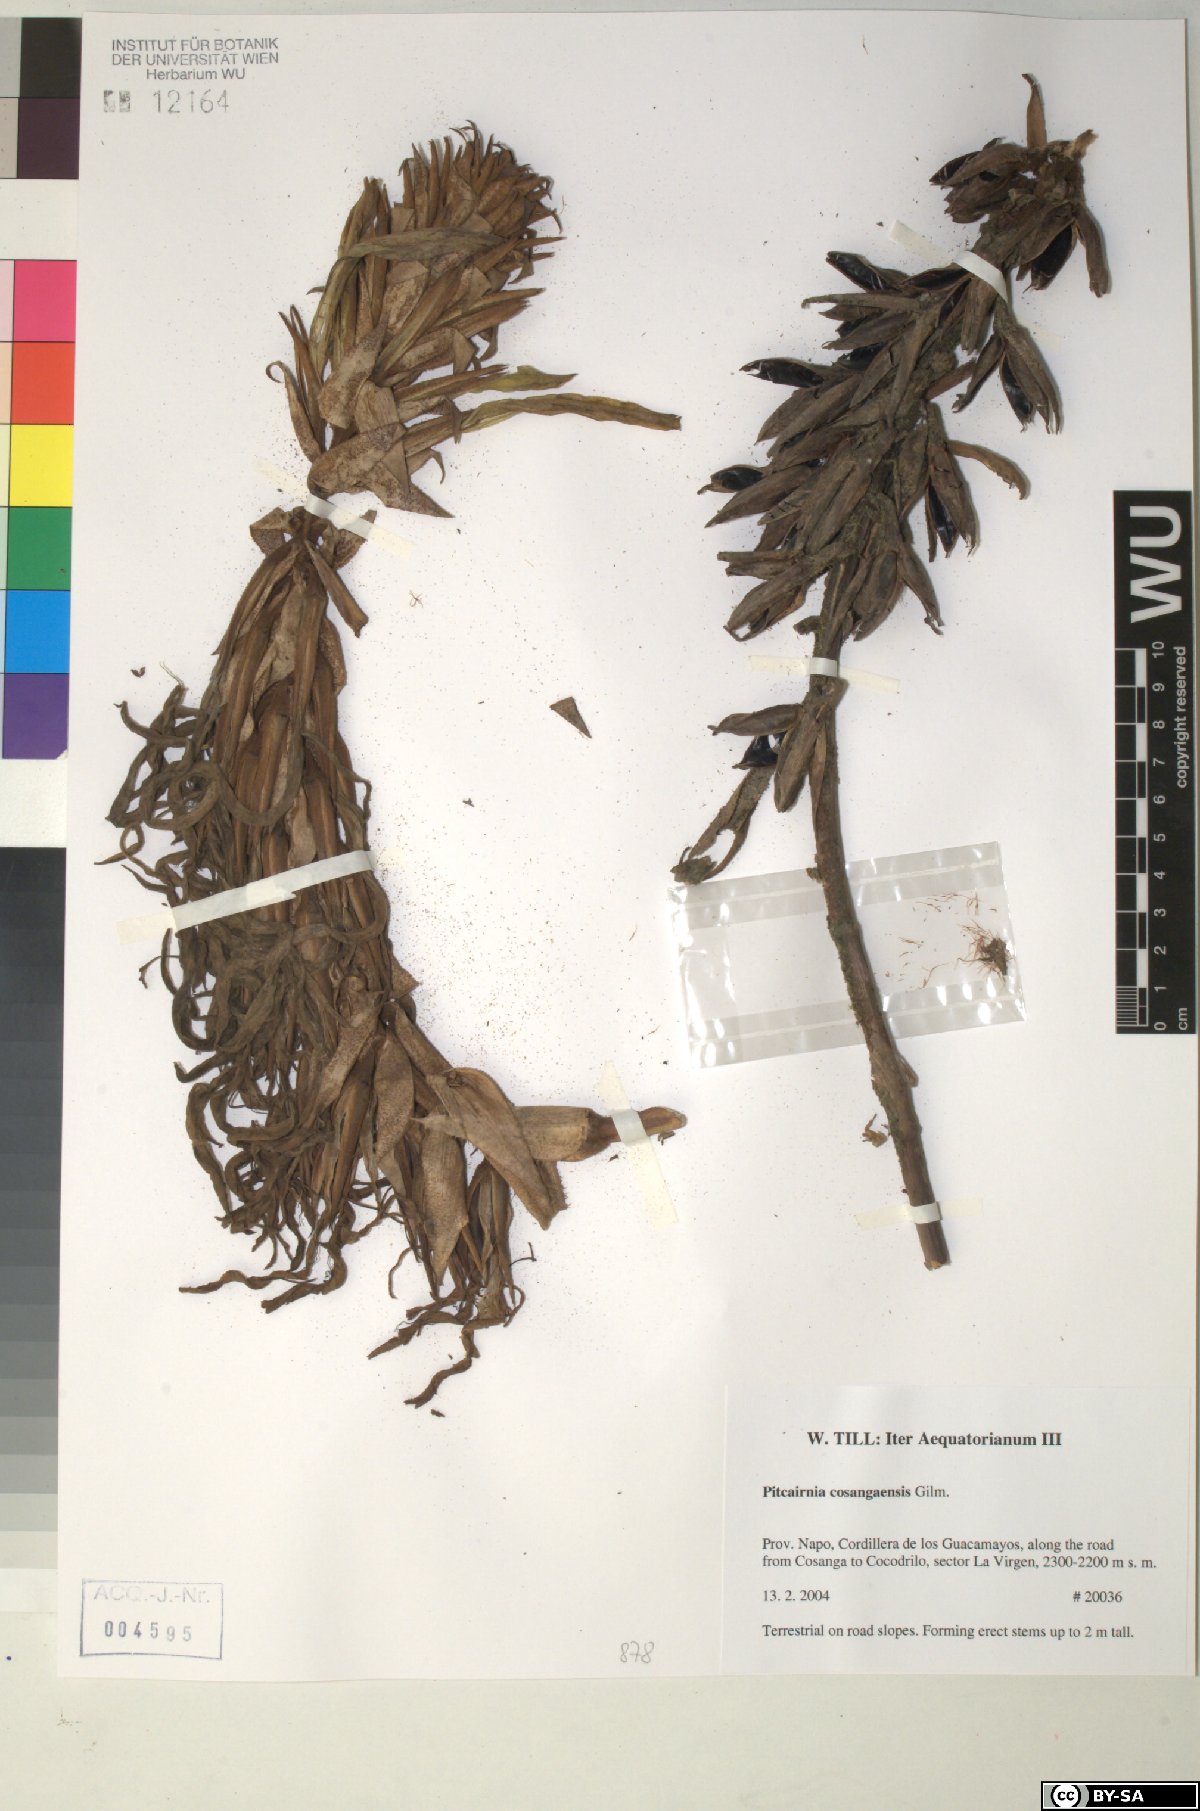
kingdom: Plantae
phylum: Tracheophyta
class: Liliopsida
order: Poales
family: Bromeliaceae
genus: Pitcairnia
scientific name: Pitcairnia cosangaensis
